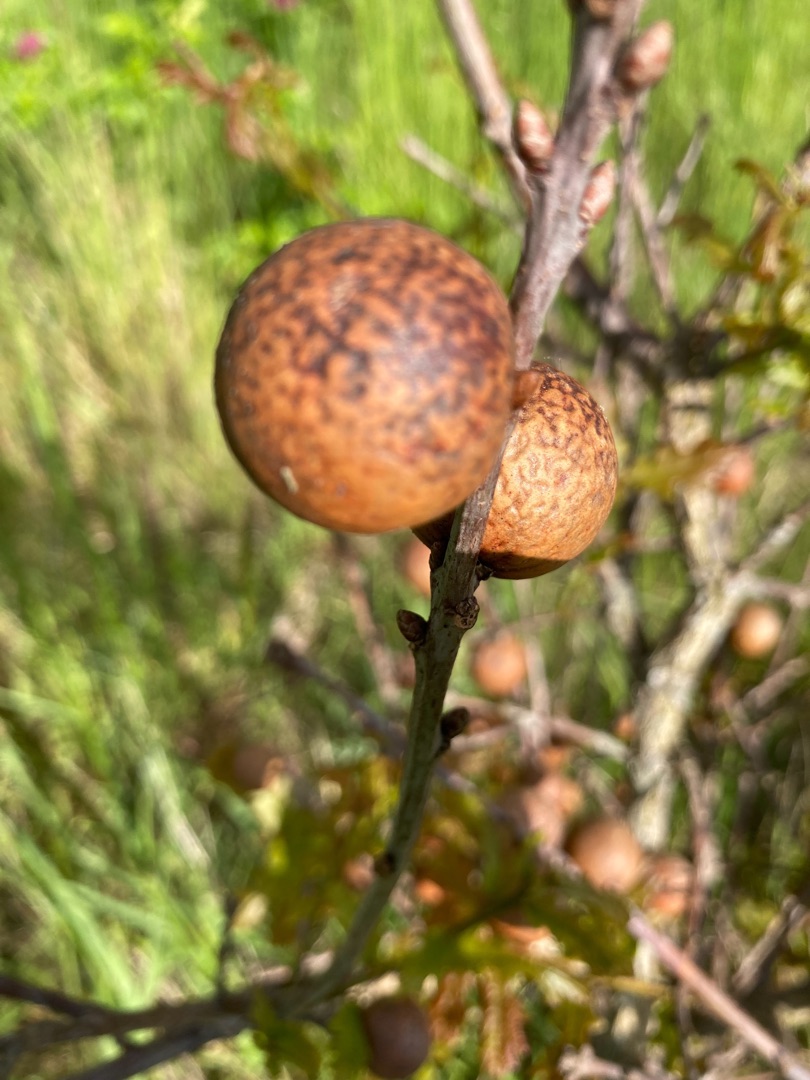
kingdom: Animalia
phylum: Arthropoda
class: Insecta
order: Hymenoptera
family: Cynipidae
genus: Andricus
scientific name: Andricus kollari
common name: Marmorkugle-galhveps
